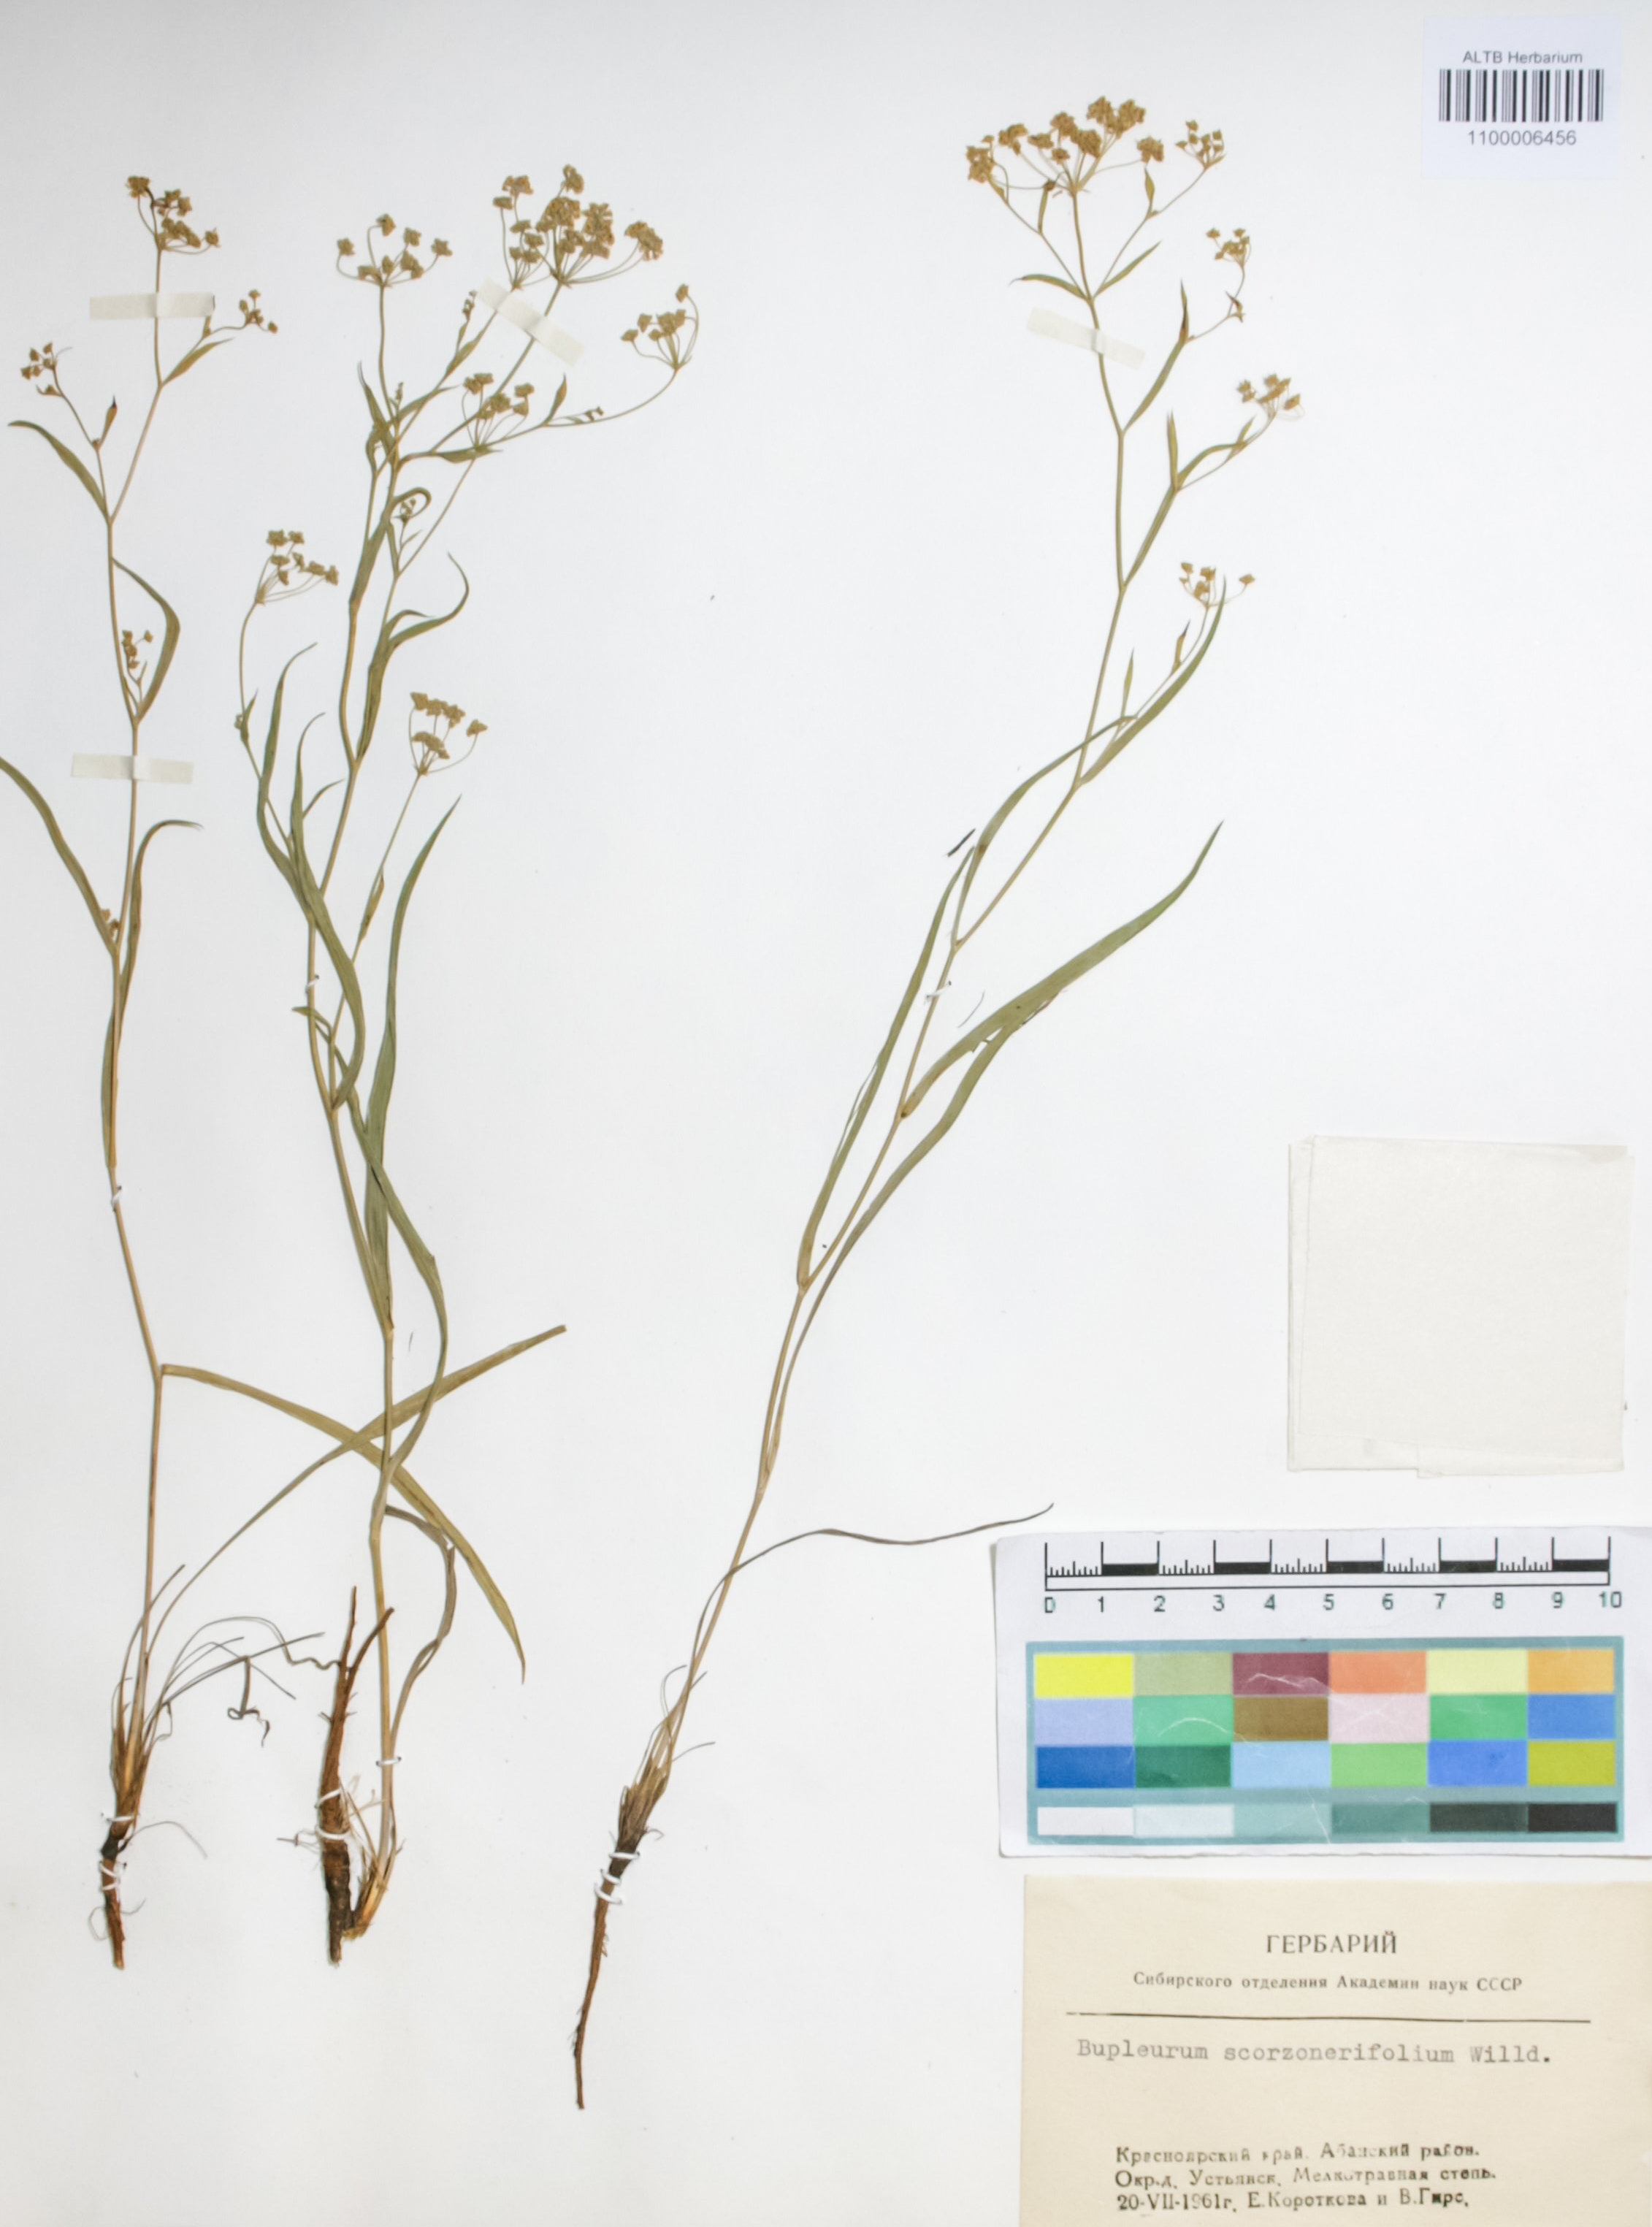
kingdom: Plantae
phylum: Tracheophyta
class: Magnoliopsida
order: Apiales
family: Apiaceae
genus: Bupleurum
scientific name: Bupleurum scorzonerifolium
